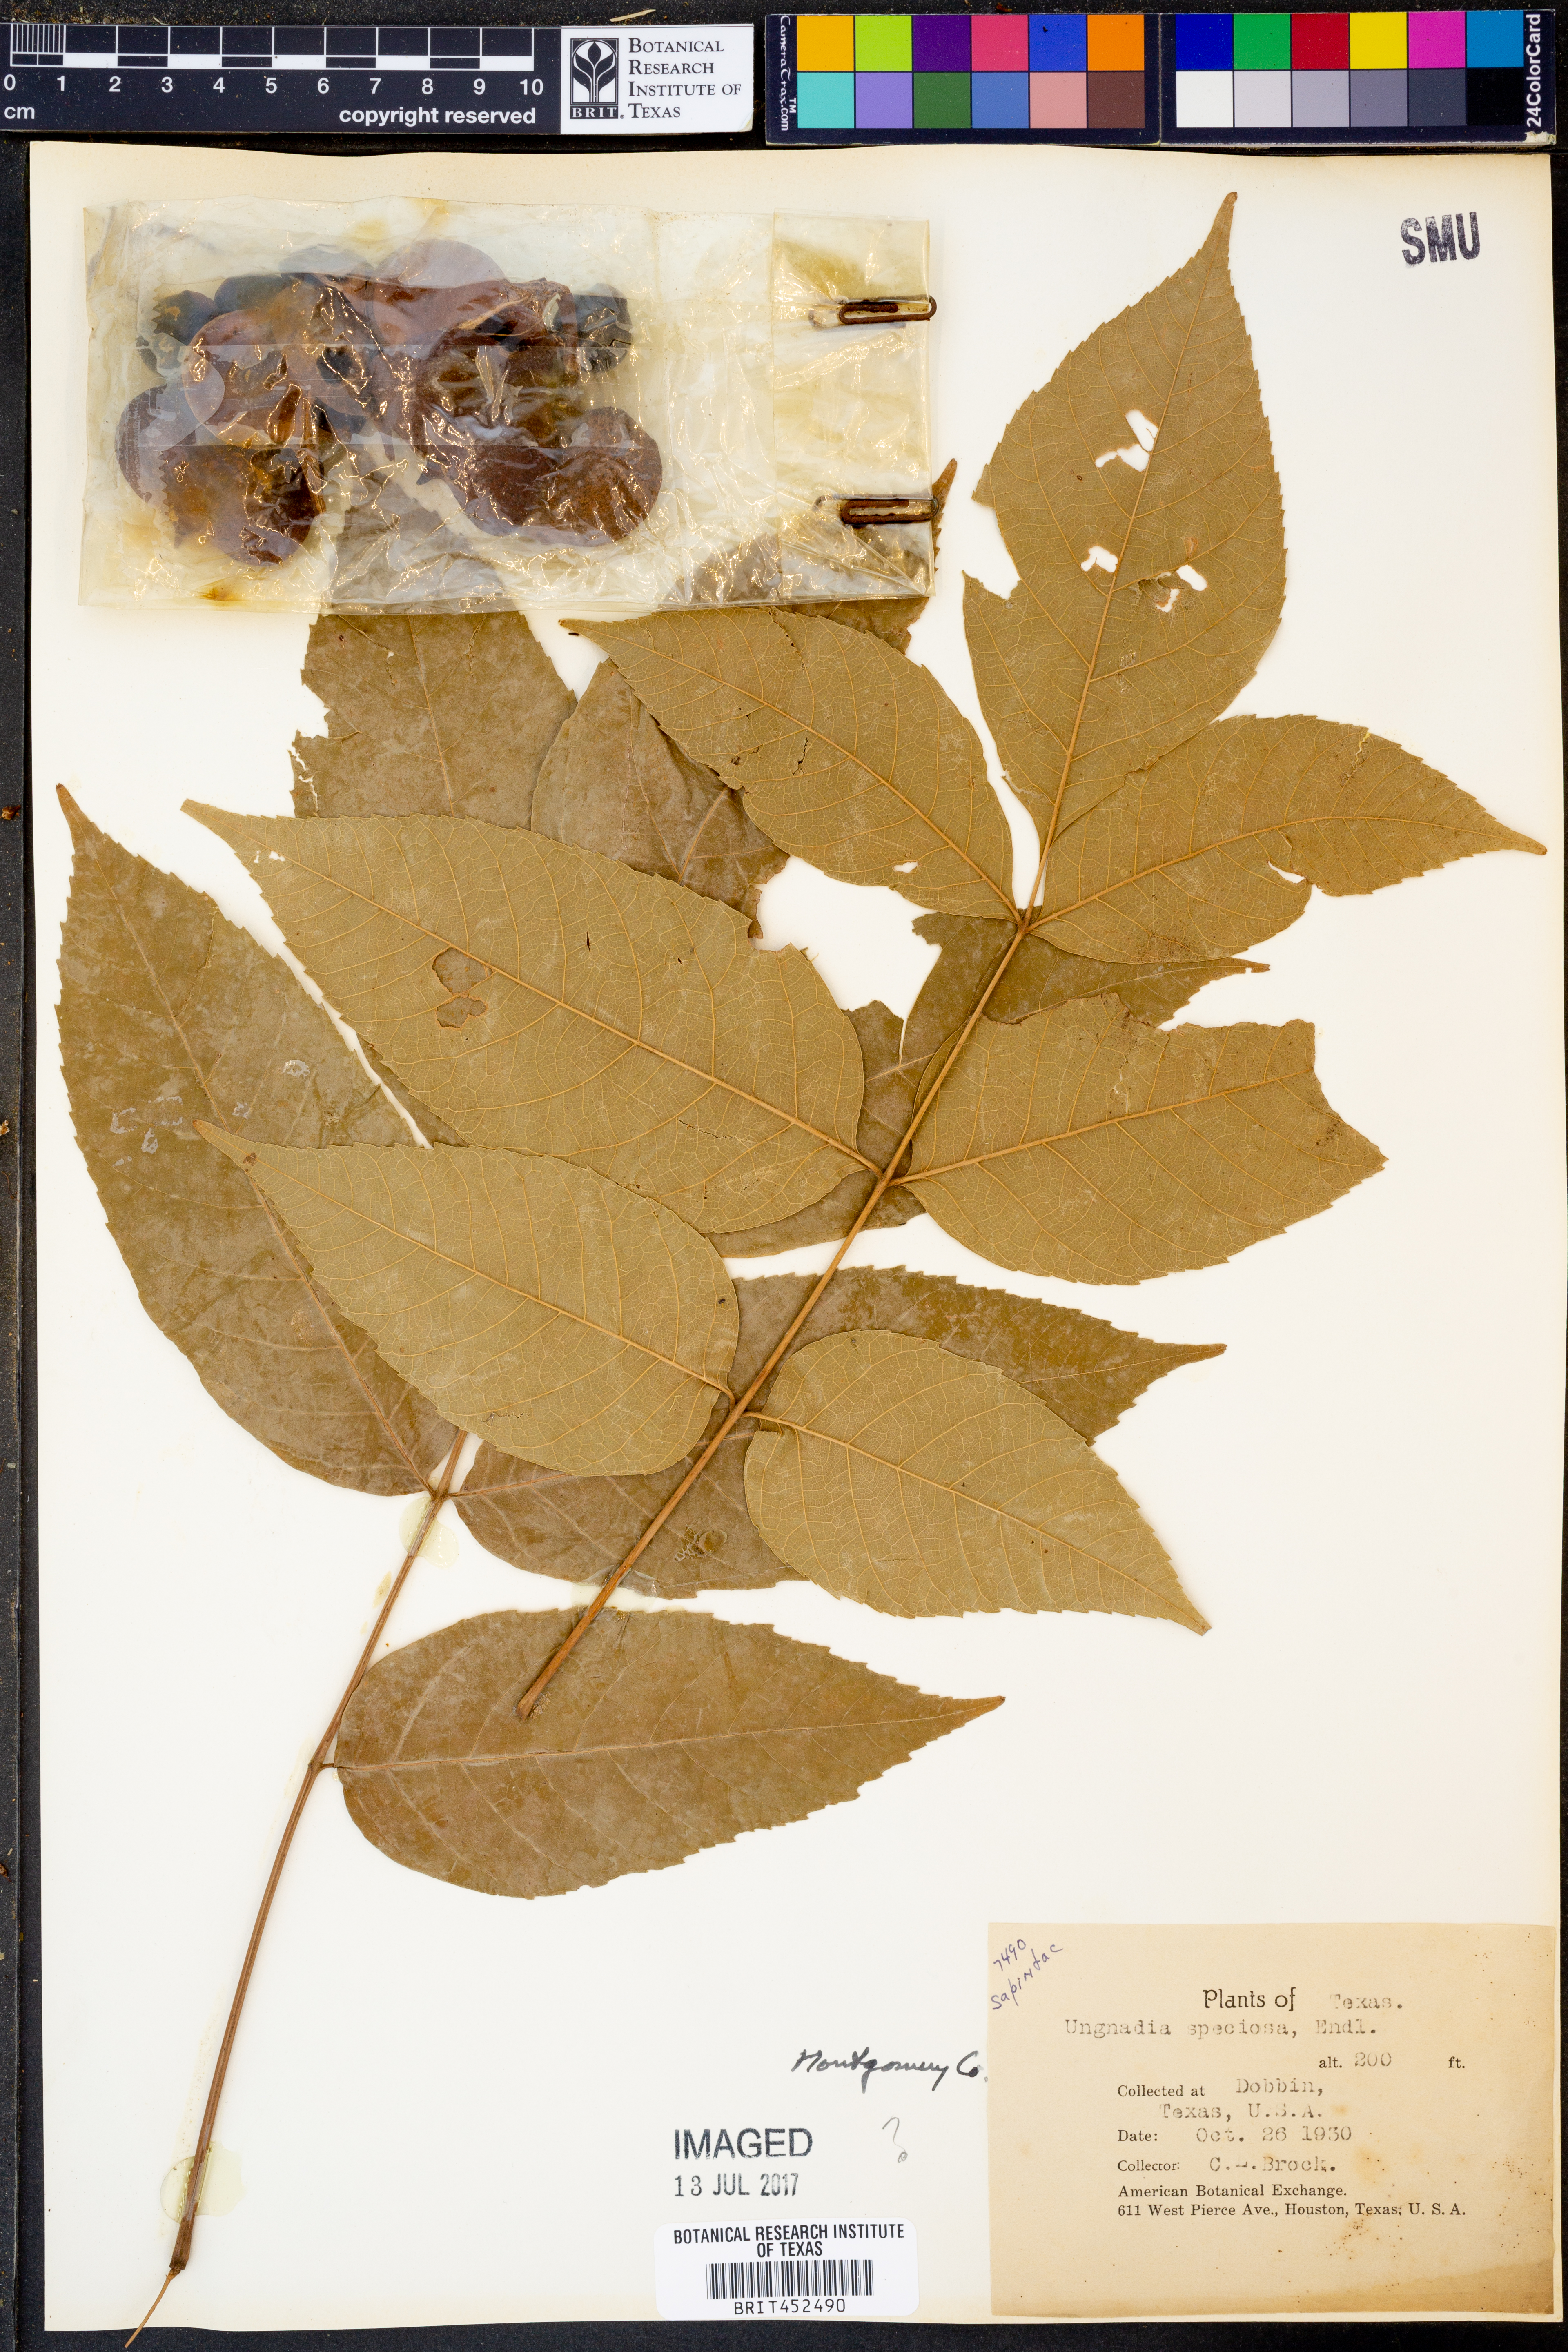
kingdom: Plantae
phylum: Tracheophyta
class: Magnoliopsida
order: Sapindales
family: Sapindaceae
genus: Ungnadia
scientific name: Ungnadia speciosa
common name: Texas-buckeye
